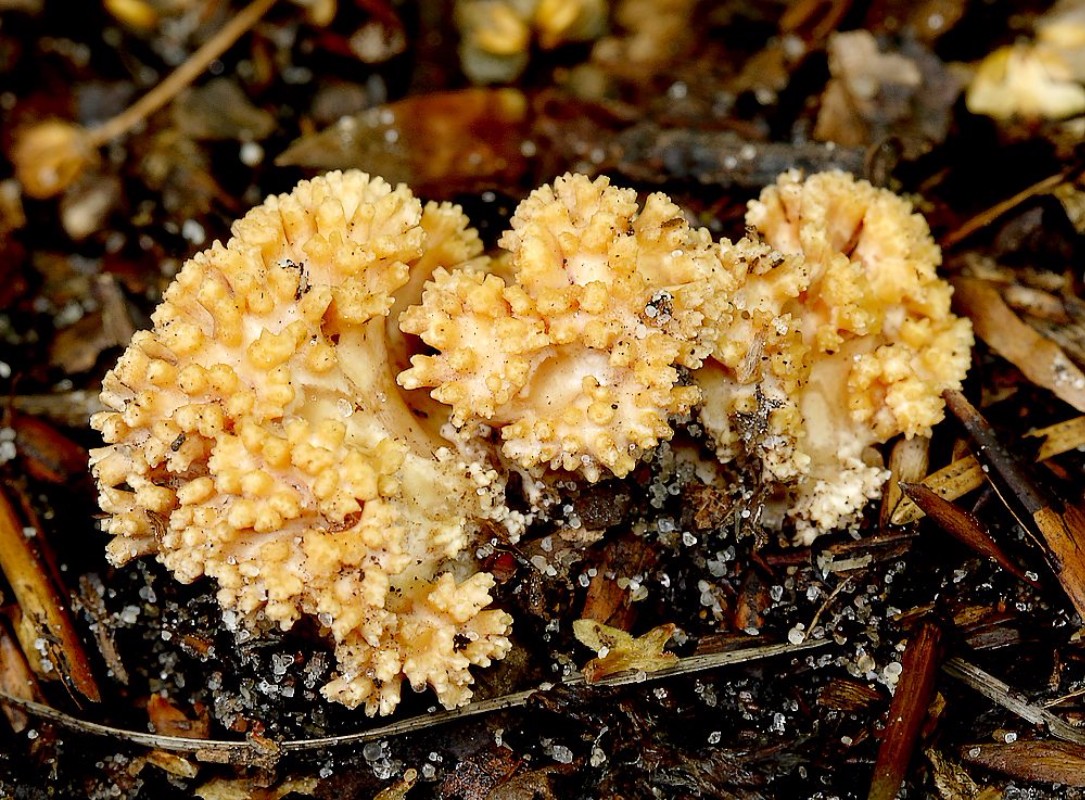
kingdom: Fungi
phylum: Basidiomycota
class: Agaricomycetes
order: Gomphales
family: Gomphaceae
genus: Ramaria
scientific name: Ramaria
